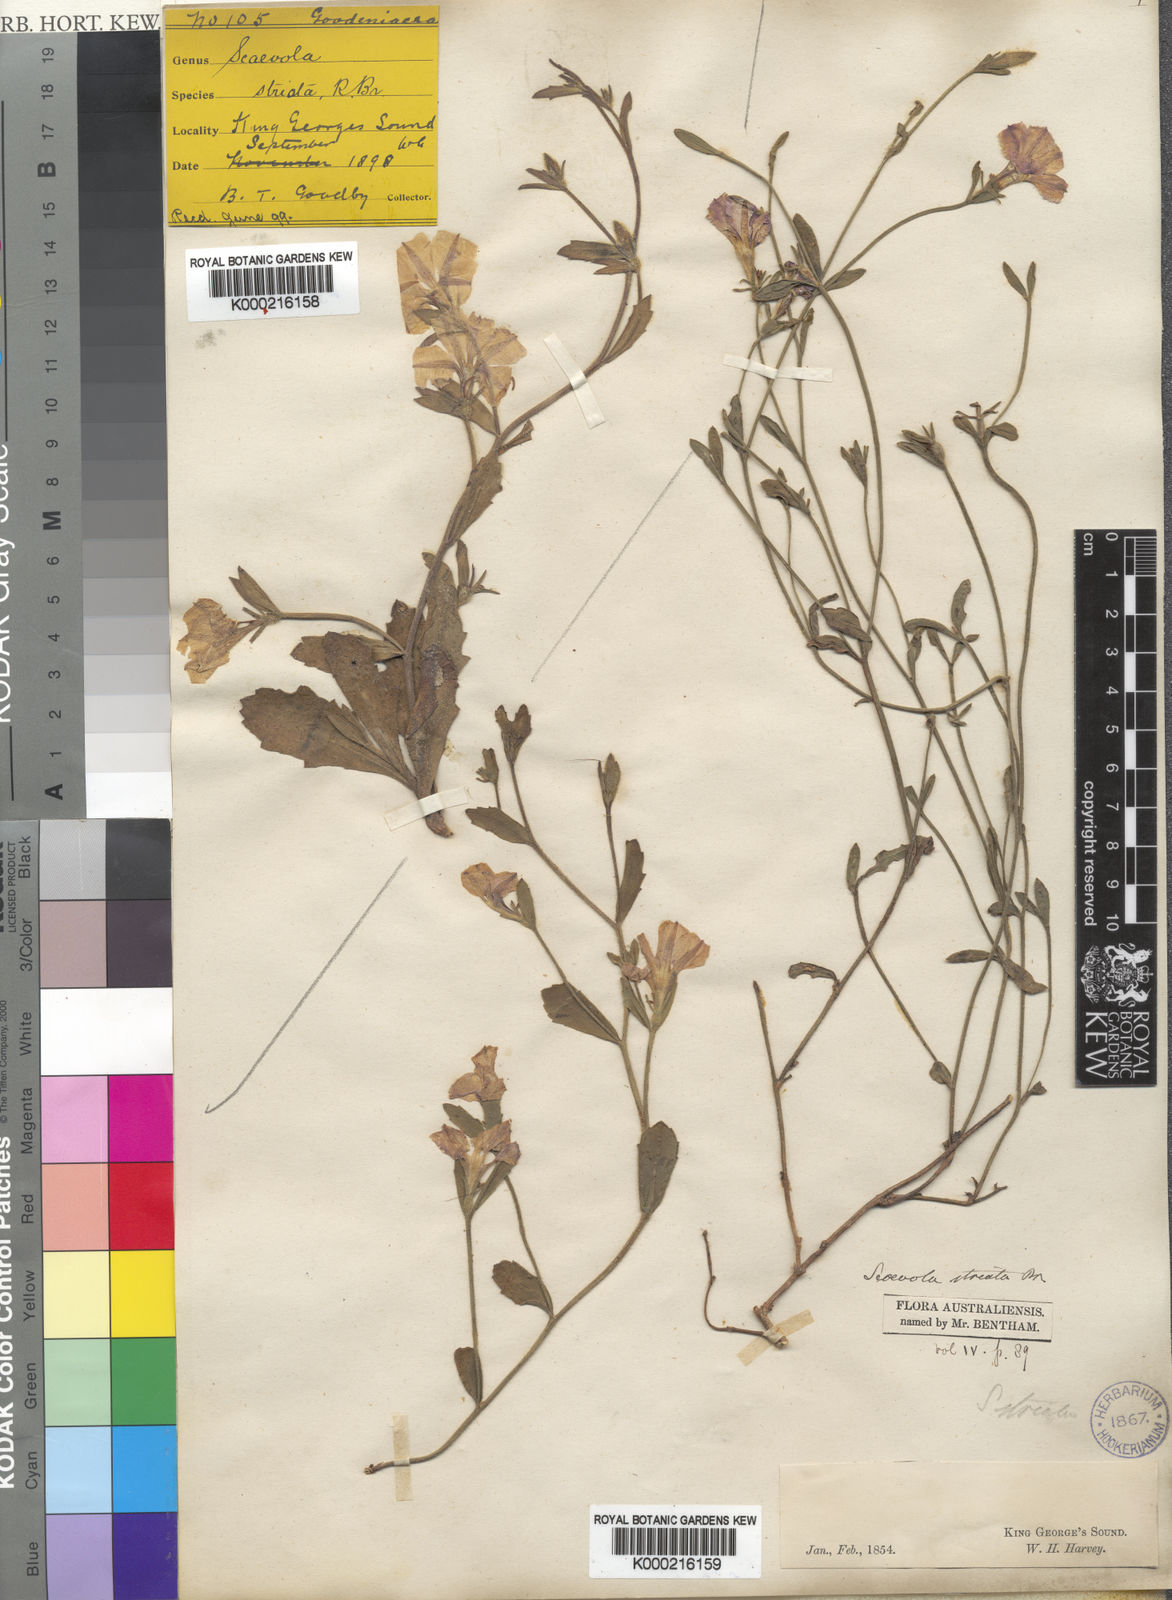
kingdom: Plantae
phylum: Tracheophyta
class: Magnoliopsida
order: Asterales
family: Goodeniaceae
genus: Scaevola
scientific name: Scaevola striata
